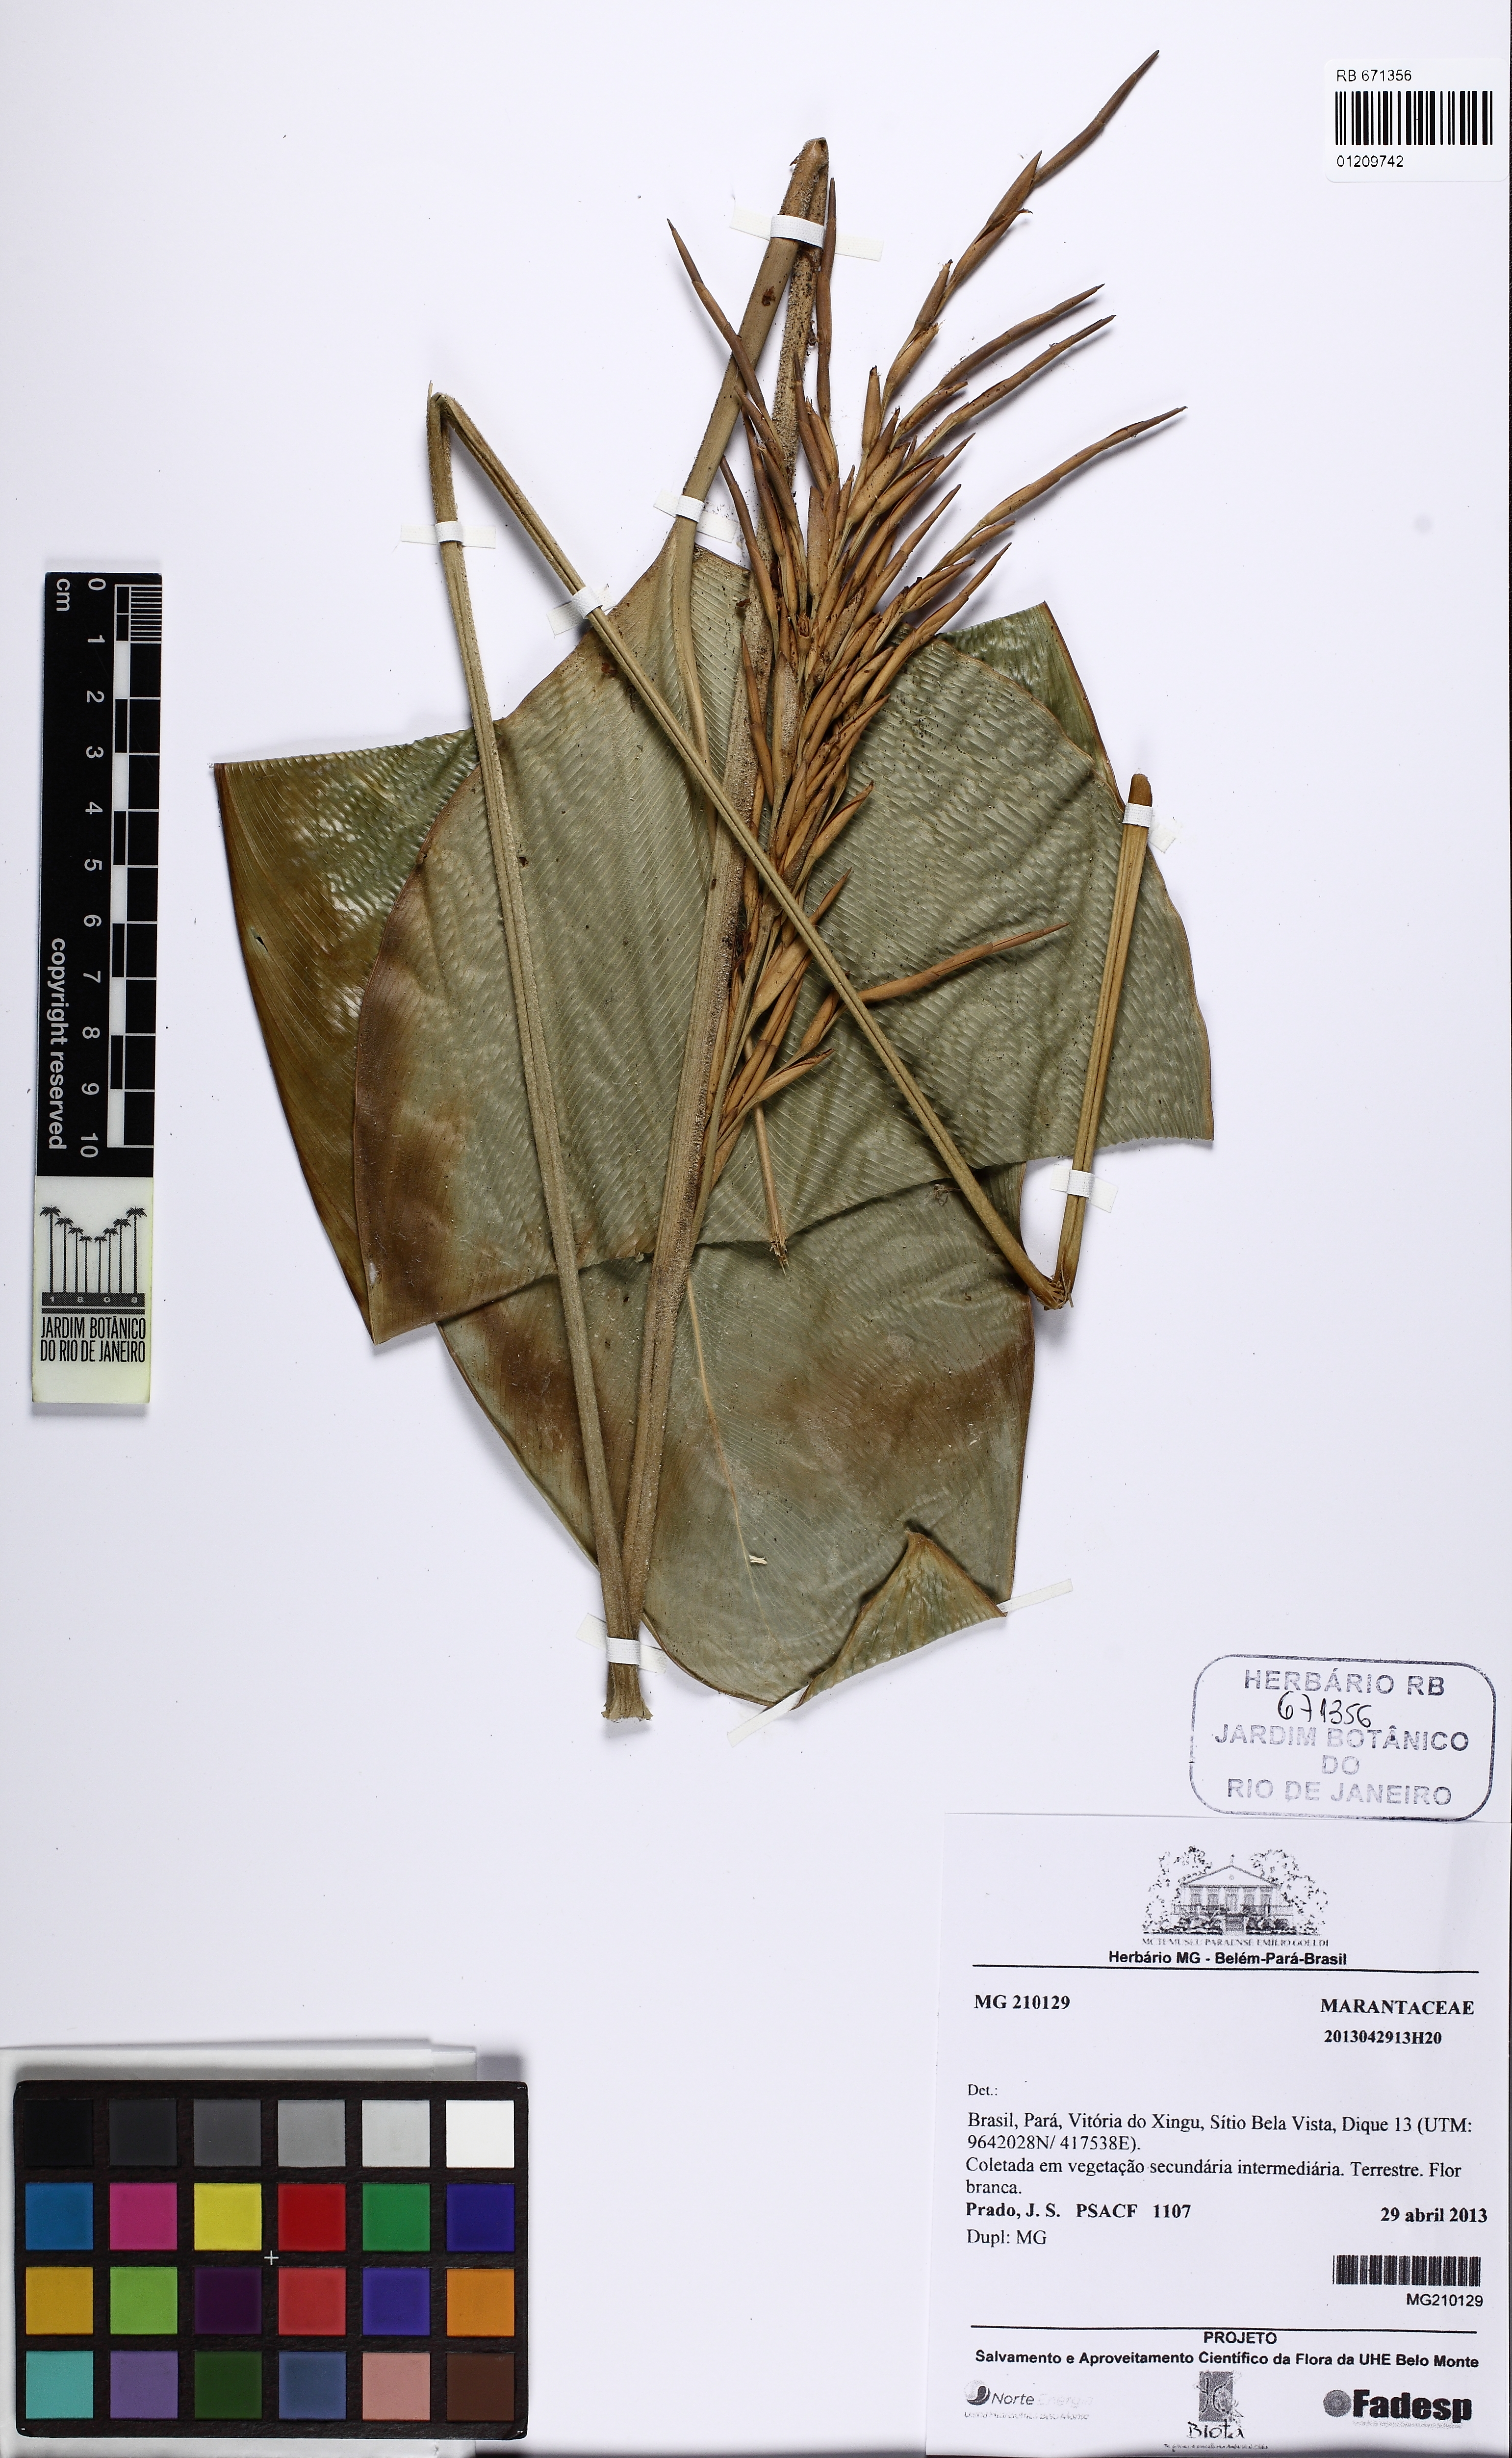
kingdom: Plantae
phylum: Tracheophyta
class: Liliopsida
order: Zingiberales
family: Marantaceae
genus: Monotagma
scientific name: Monotagma
